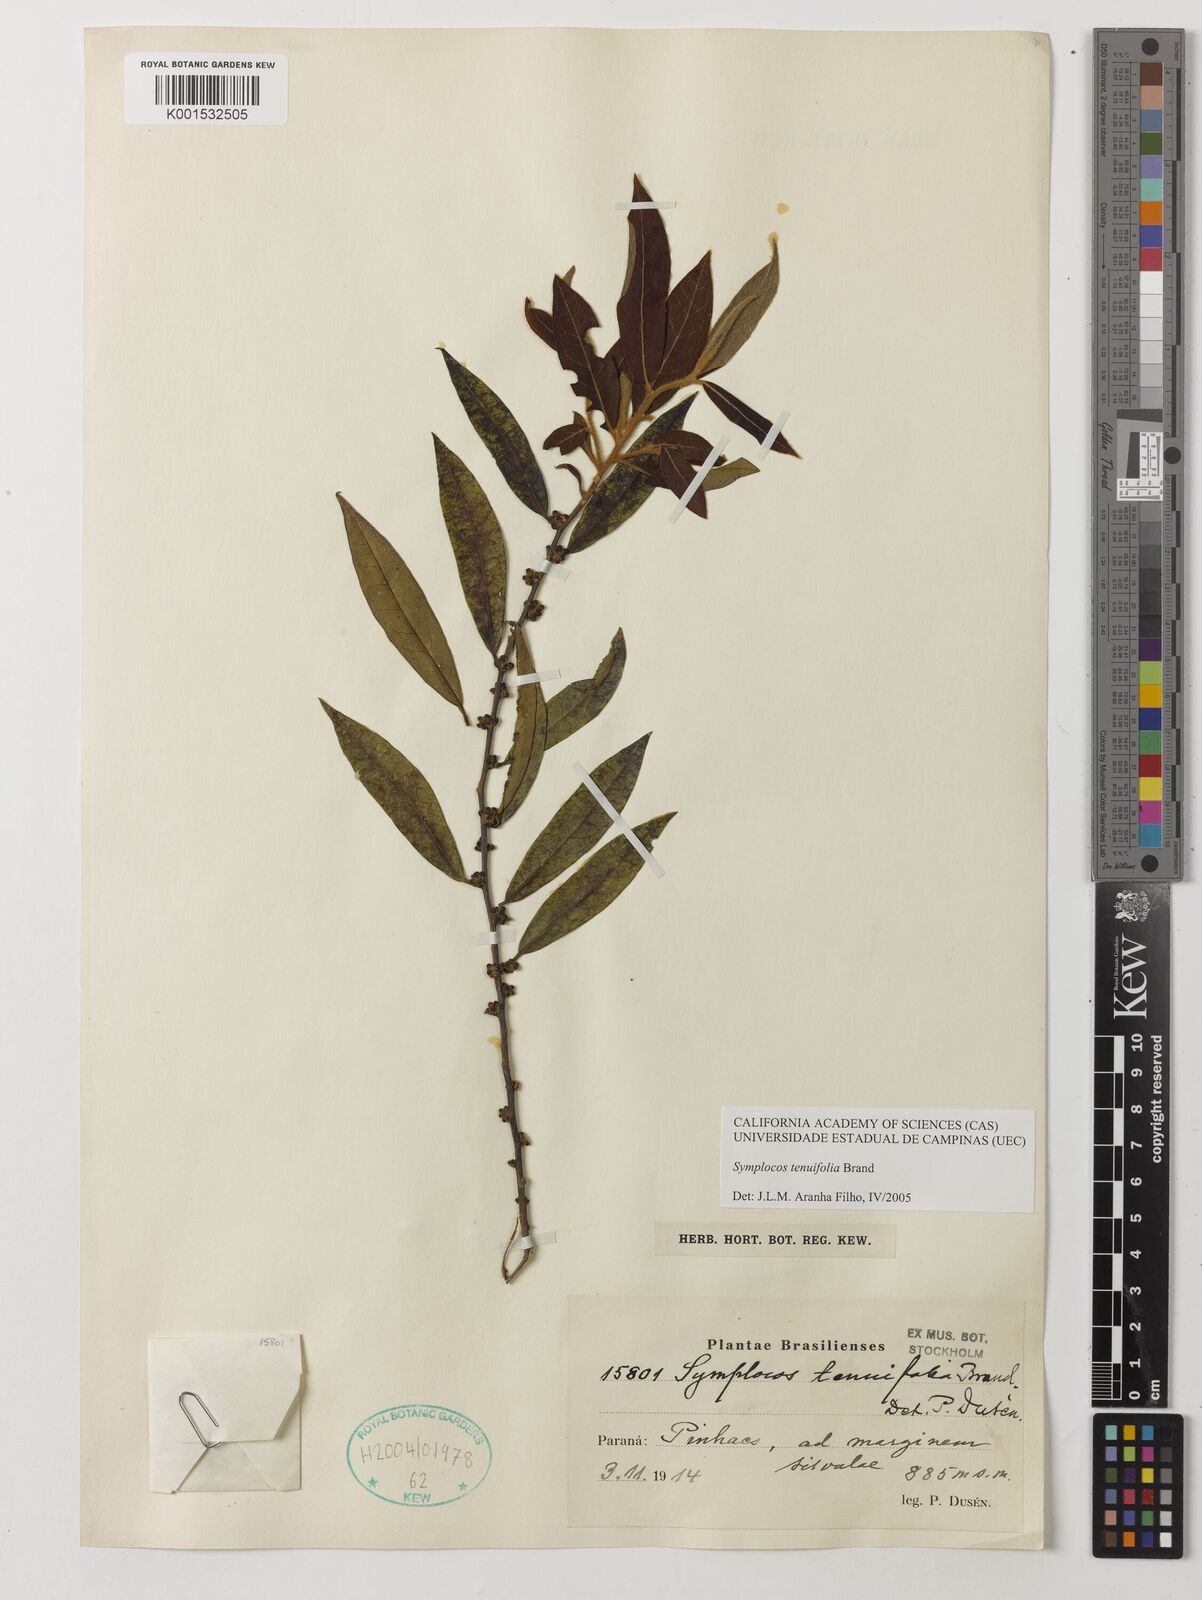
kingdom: Plantae
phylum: Tracheophyta
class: Magnoliopsida
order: Ericales
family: Symplocaceae
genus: Symplocos
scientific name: Symplocos tenuifolia
